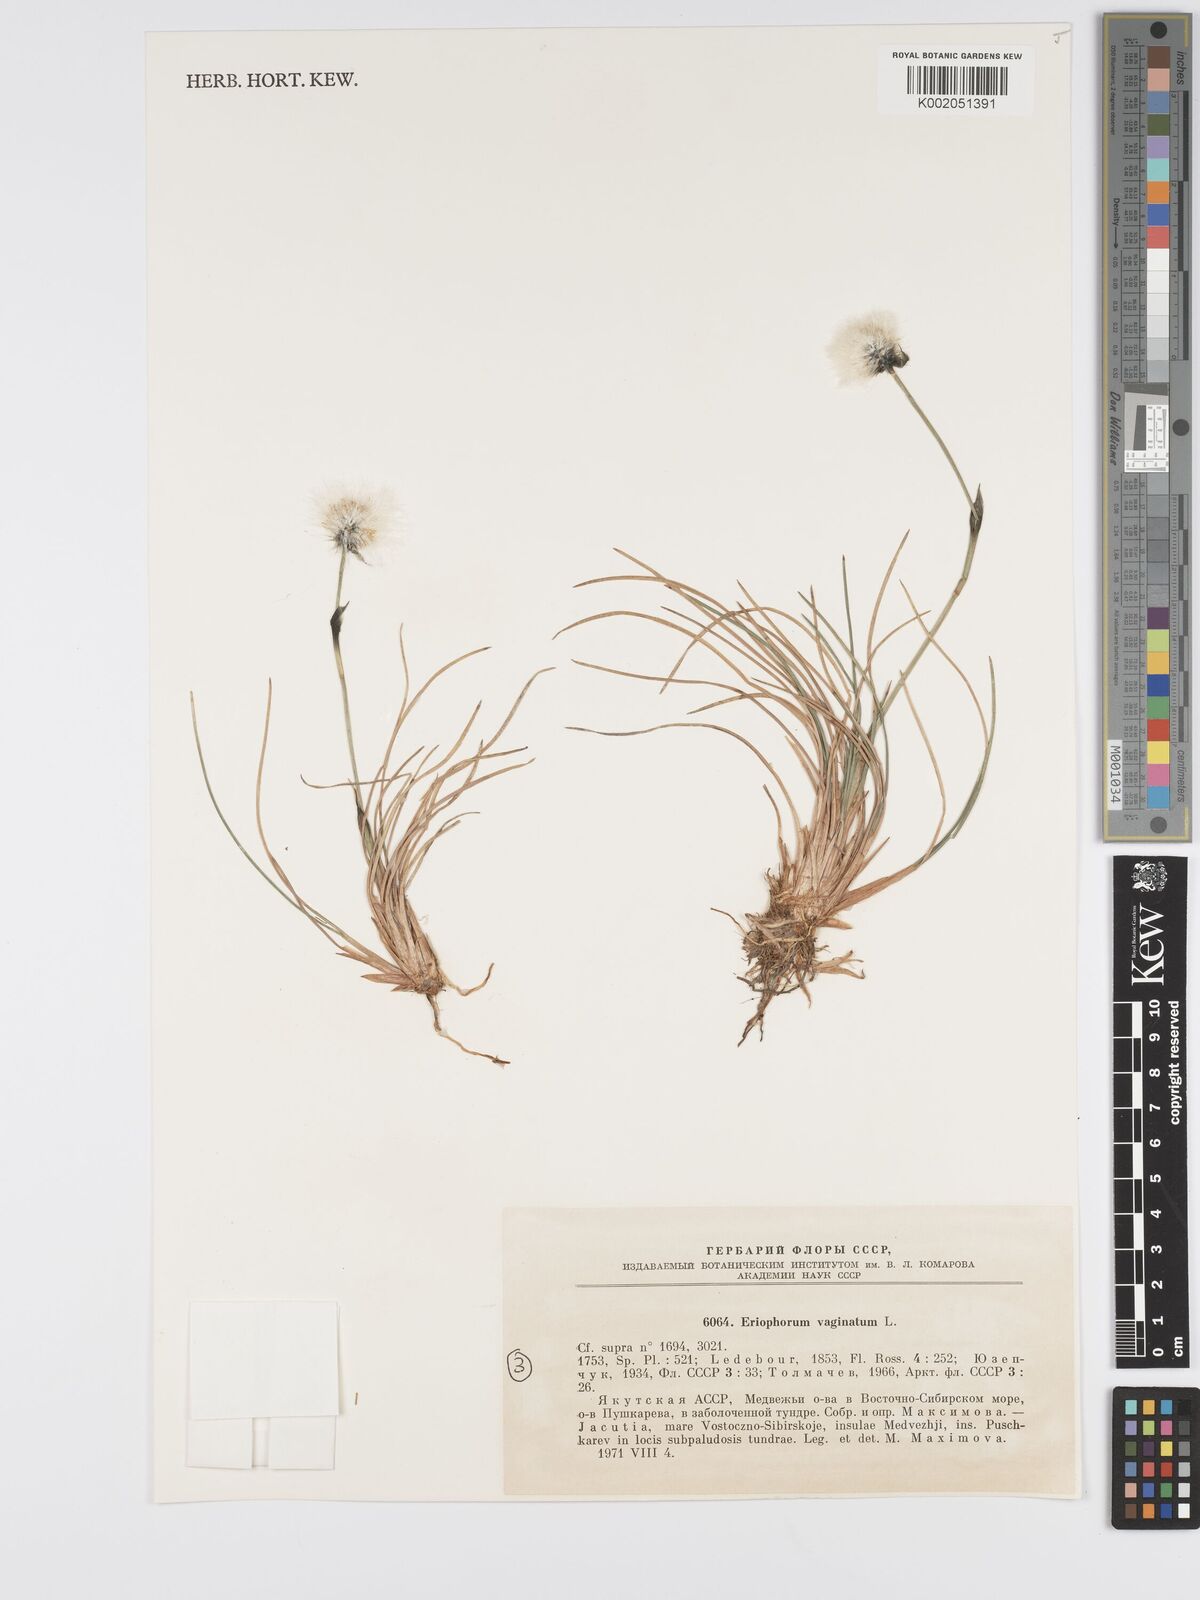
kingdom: Plantae
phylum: Tracheophyta
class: Liliopsida
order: Poales
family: Cyperaceae
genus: Eriophorum
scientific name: Eriophorum vaginatum
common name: Hare's-tail cottongrass
